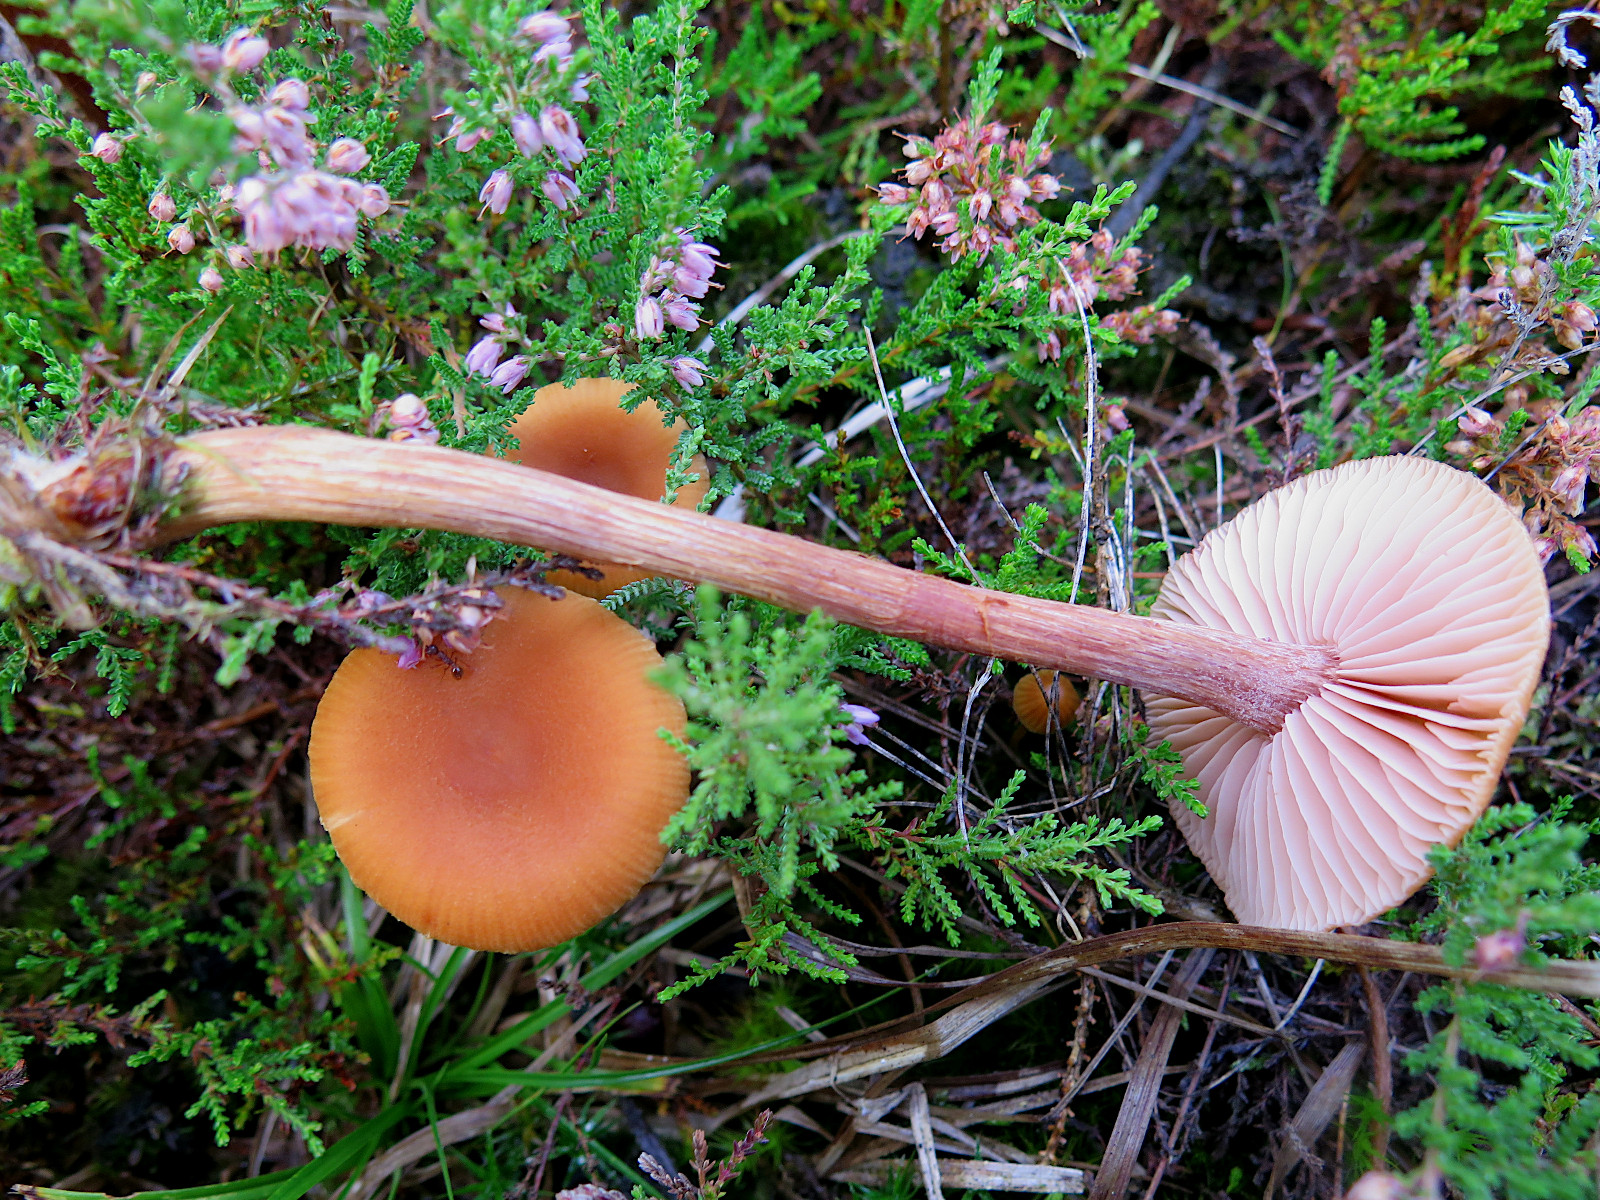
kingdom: Fungi
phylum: Basidiomycota
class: Agaricomycetes
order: Agaricales
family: Hydnangiaceae
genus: Laccaria
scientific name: Laccaria proxima
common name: stor ametysthat
